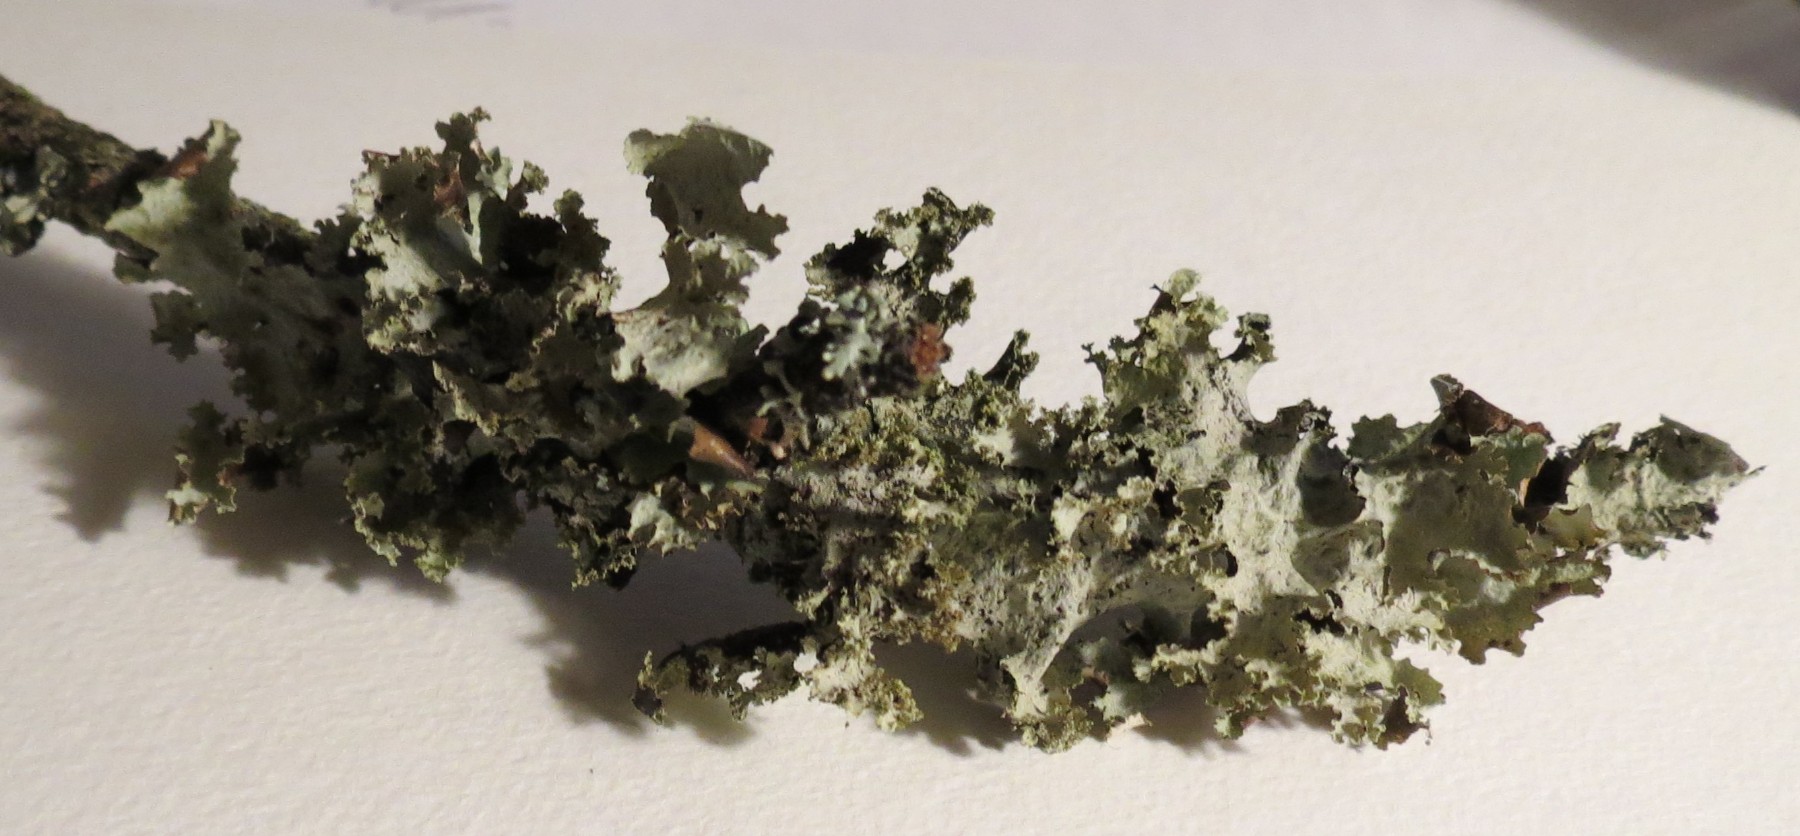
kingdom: Fungi
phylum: Ascomycota
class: Lecanoromycetes
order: Lecanorales
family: Parmeliaceae
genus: Platismatia
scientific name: Platismatia glauca
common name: blågrå papirlav
